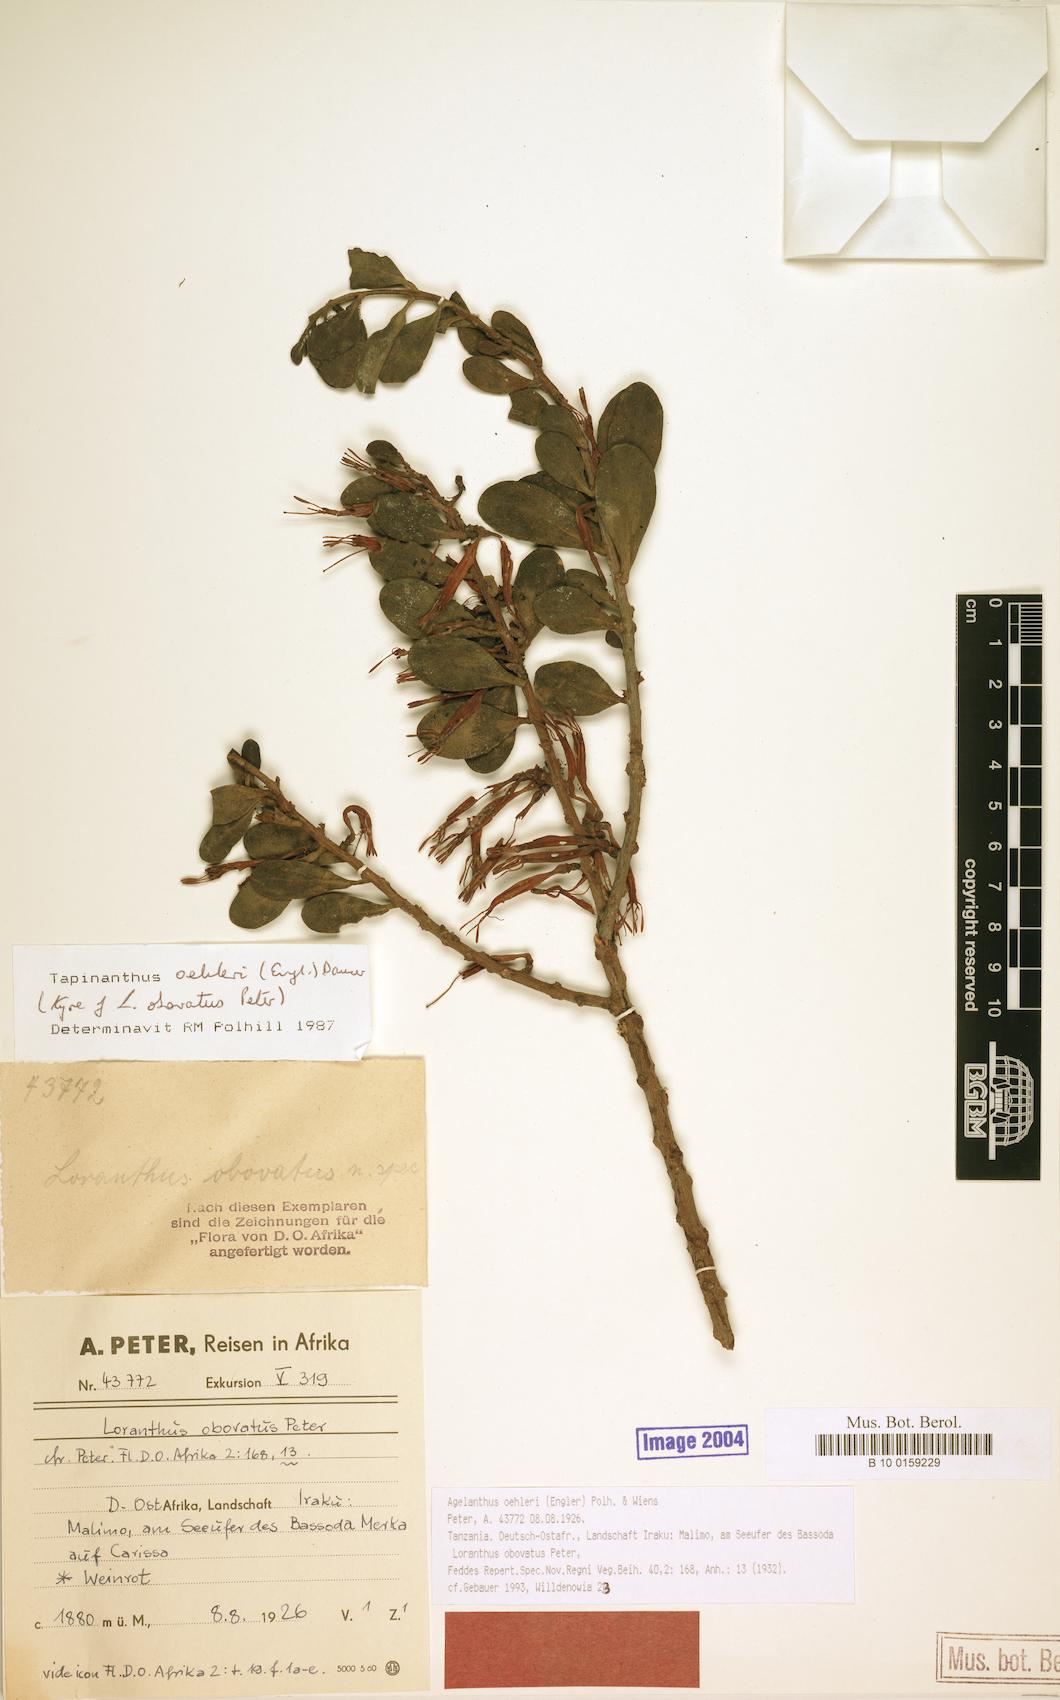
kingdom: Plantae
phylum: Tracheophyta
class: Magnoliopsida
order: Santalales
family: Loranthaceae
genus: Agelanthus
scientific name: Agelanthus oehleri
